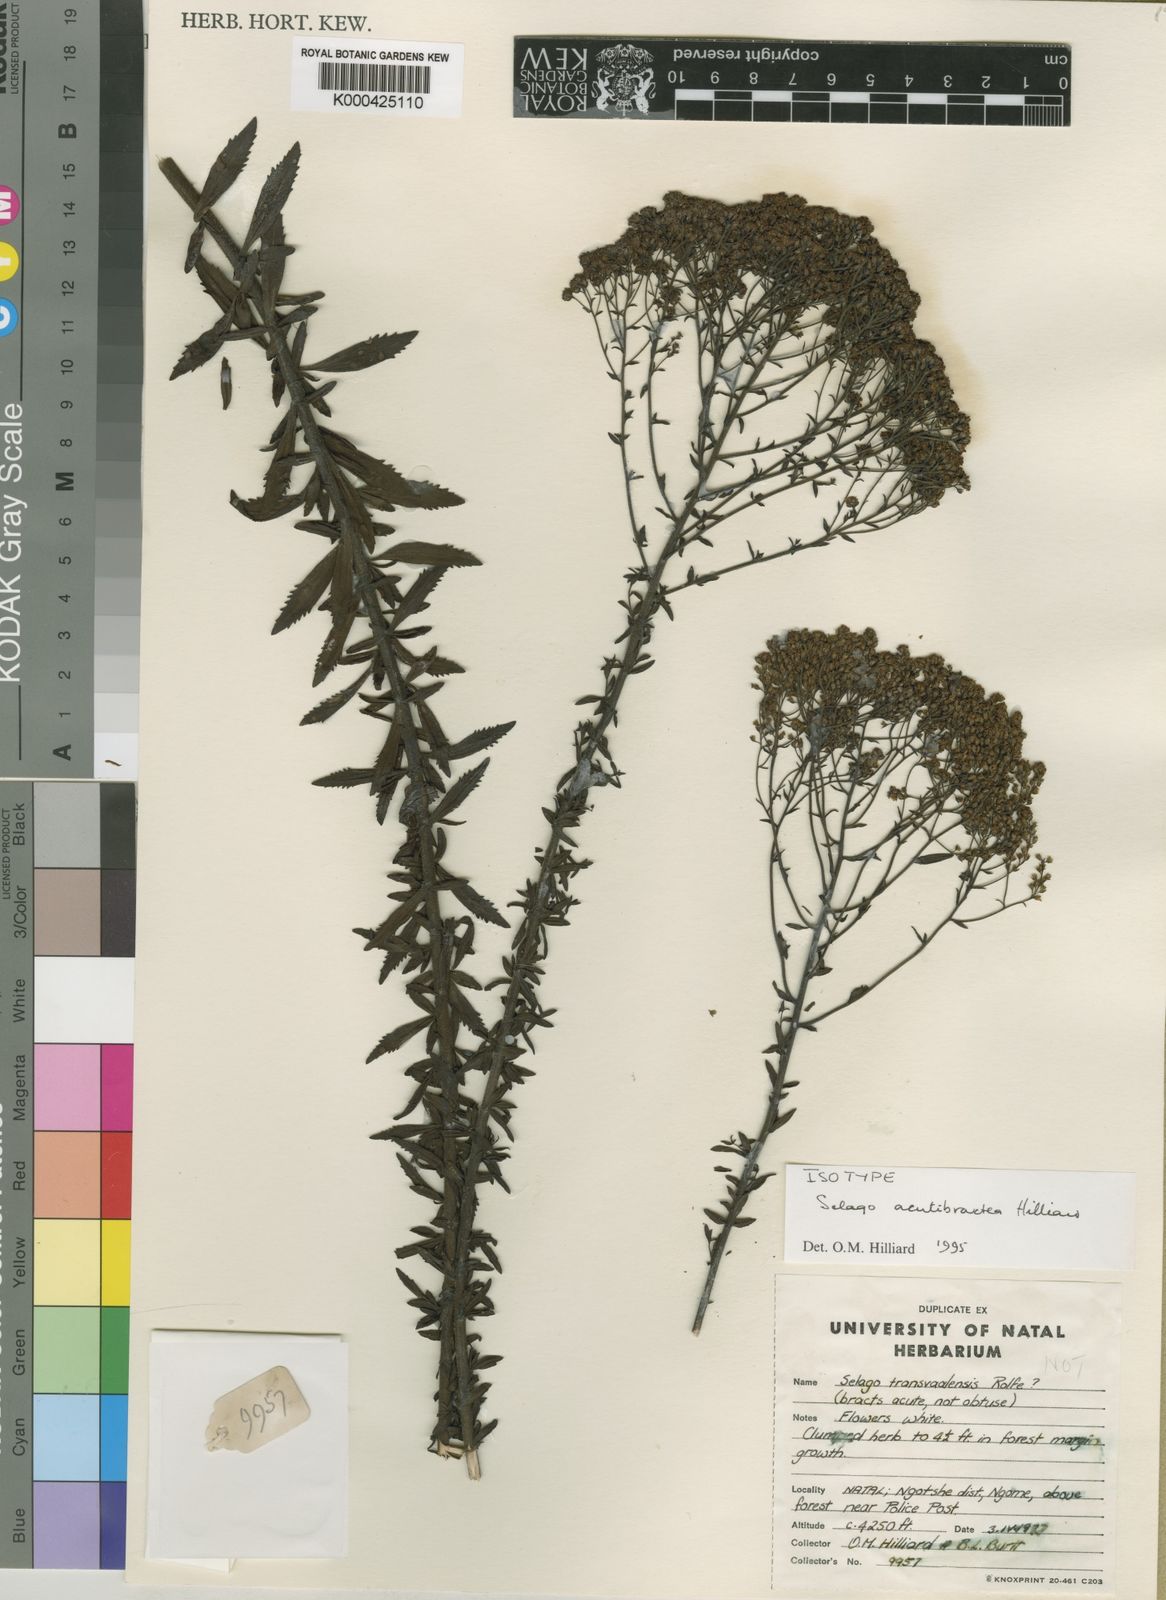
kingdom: Plantae
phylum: Tracheophyta
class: Magnoliopsida
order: Lamiales
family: Scrophulariaceae
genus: Selago
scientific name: Selago acutibractea
